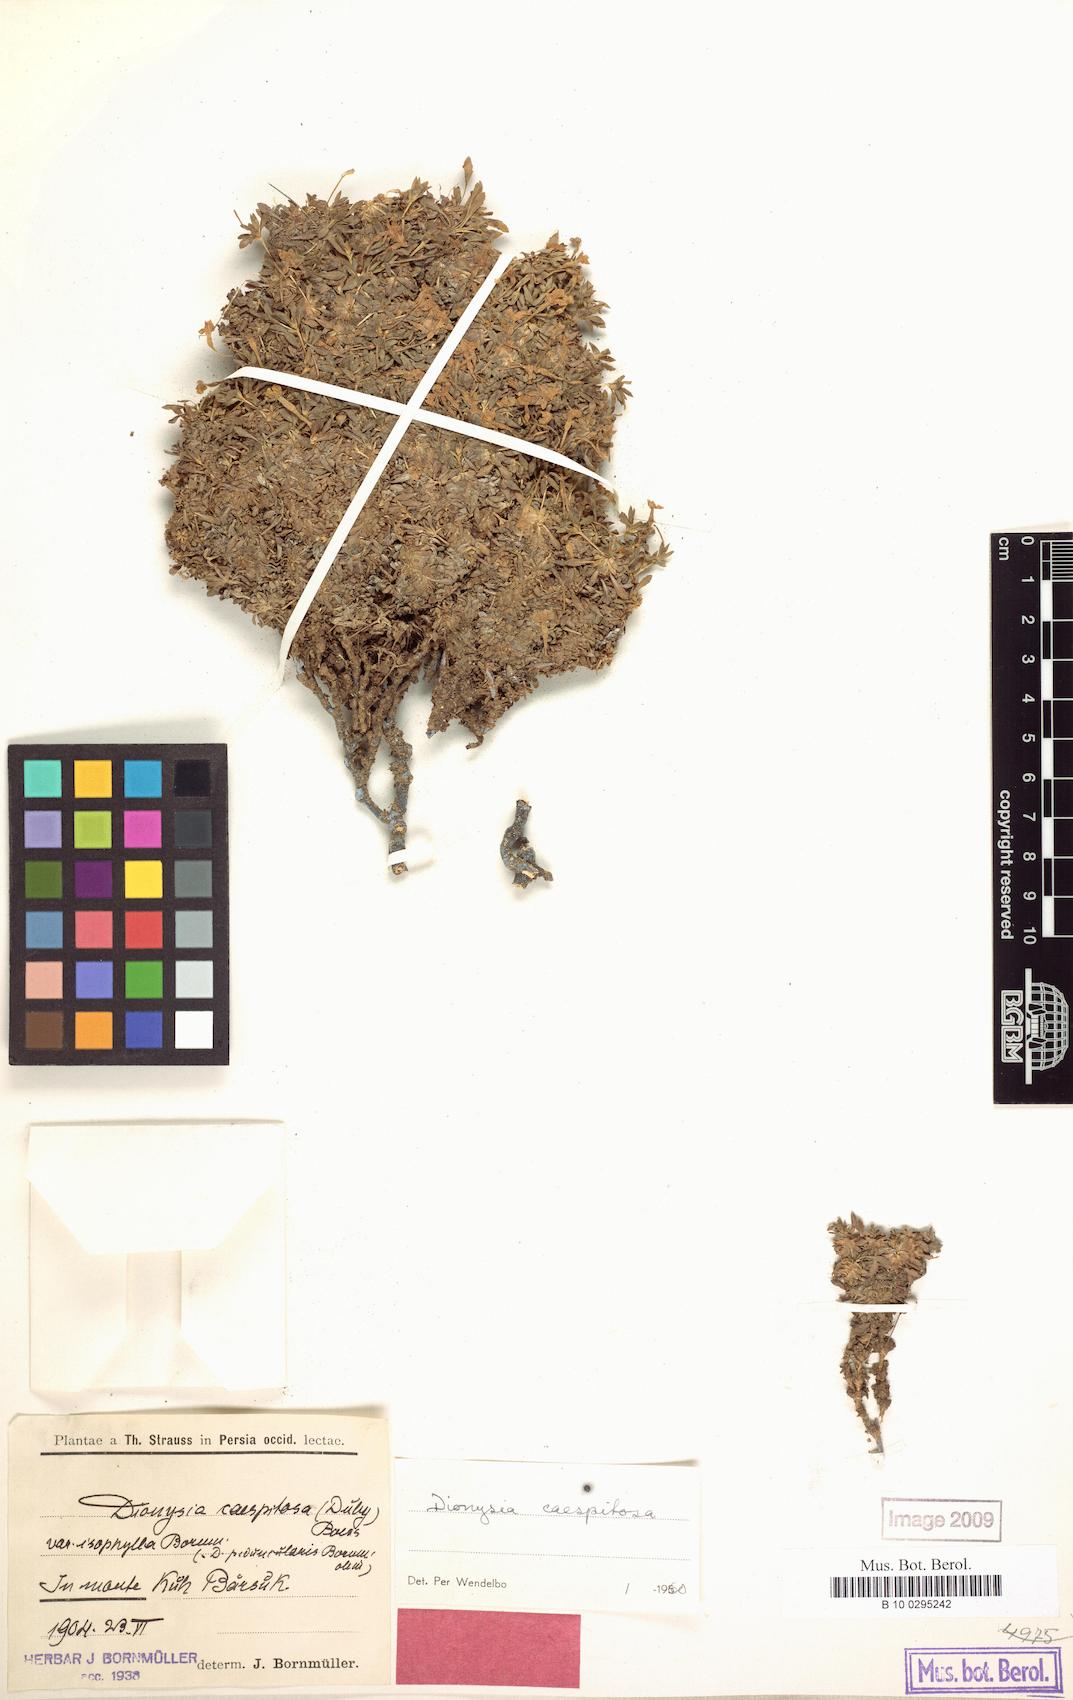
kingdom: Plantae
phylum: Tracheophyta
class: Magnoliopsida
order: Ericales
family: Primulaceae
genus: Dionysia
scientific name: Dionysia caespitosa
